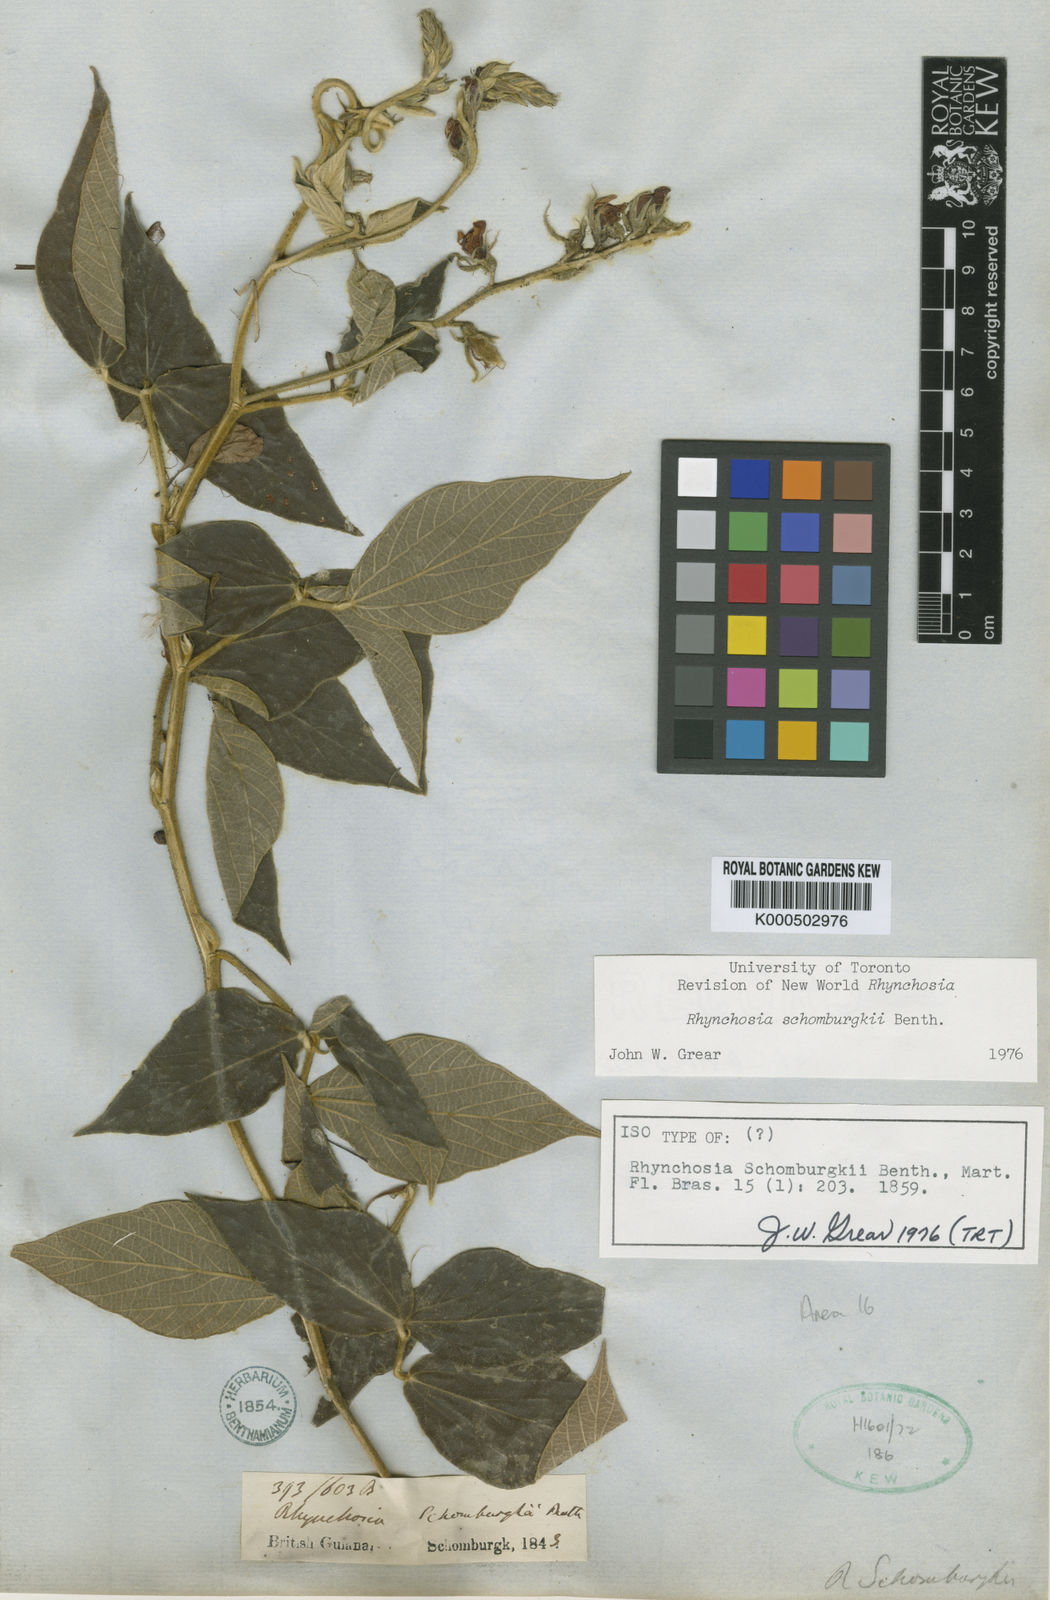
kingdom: Plantae
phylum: Tracheophyta
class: Magnoliopsida
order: Fabales
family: Fabaceae
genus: Rhynchosia
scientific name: Rhynchosia schomburgkii
